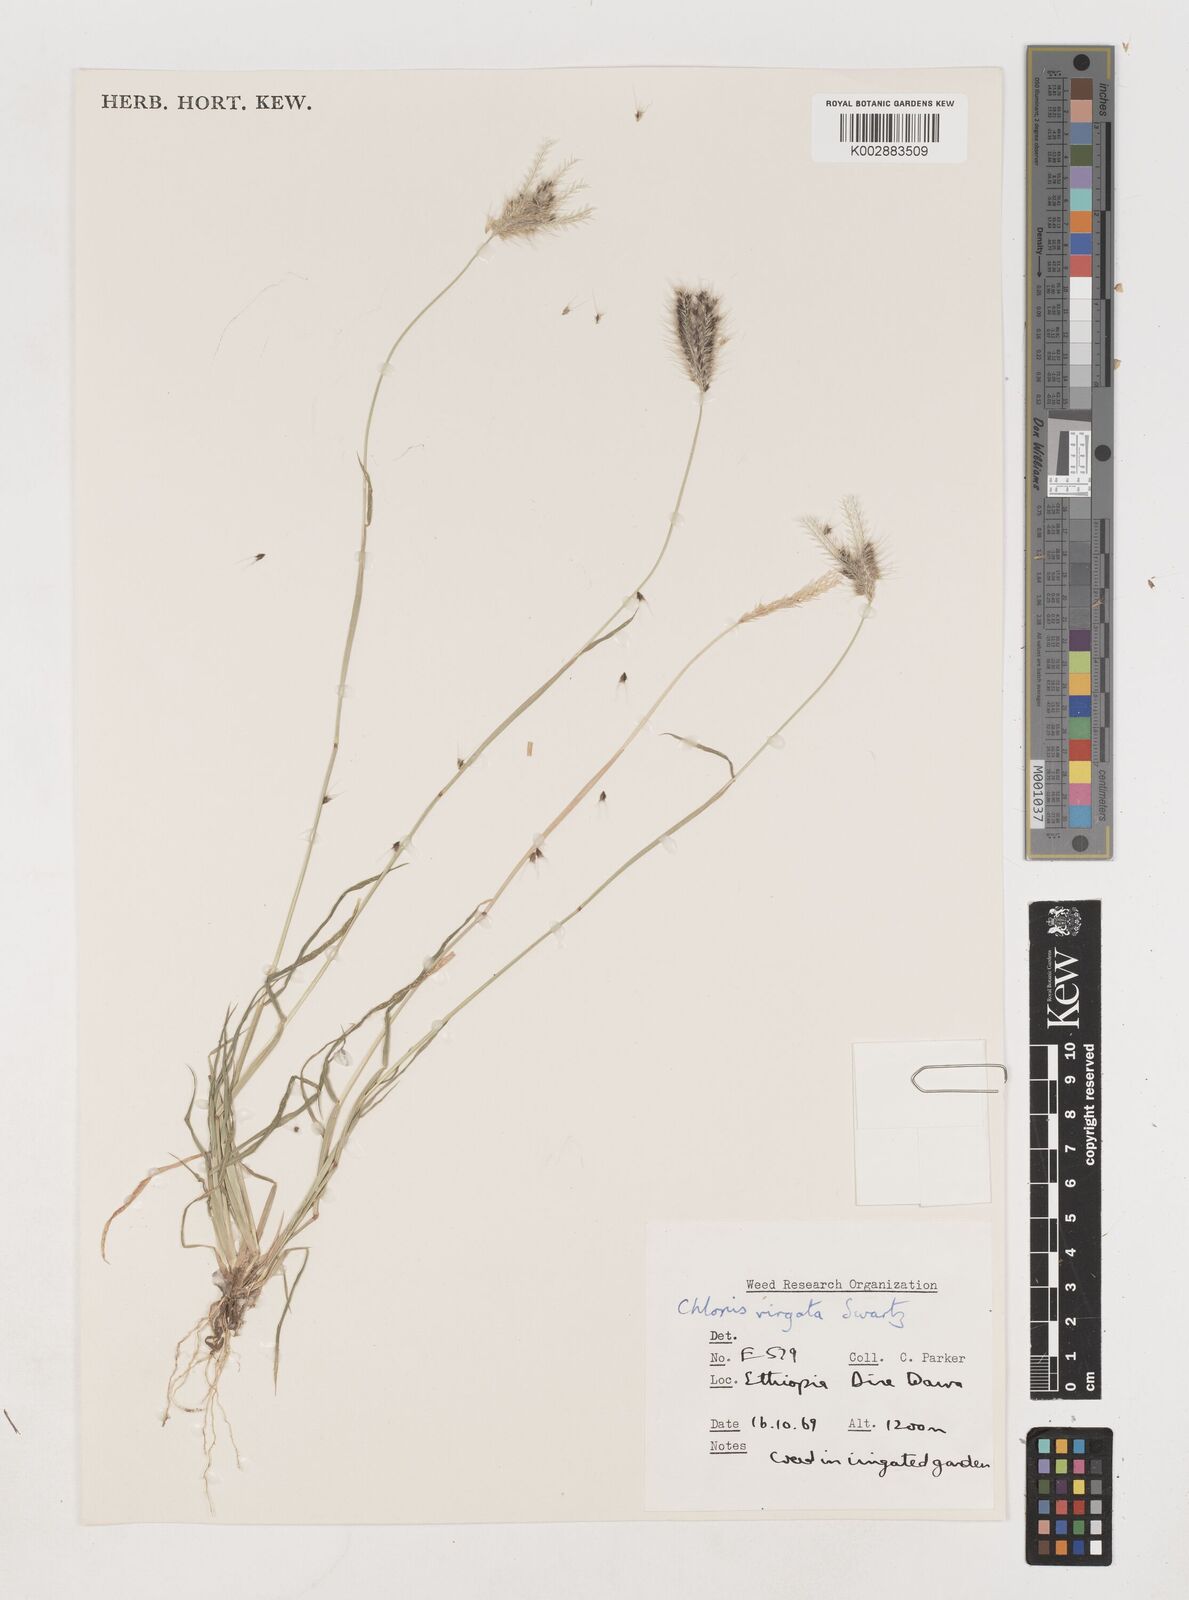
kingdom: Plantae
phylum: Tracheophyta
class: Liliopsida
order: Poales
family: Poaceae
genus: Chloris
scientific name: Chloris virgata
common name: Feathery rhodes-grass
